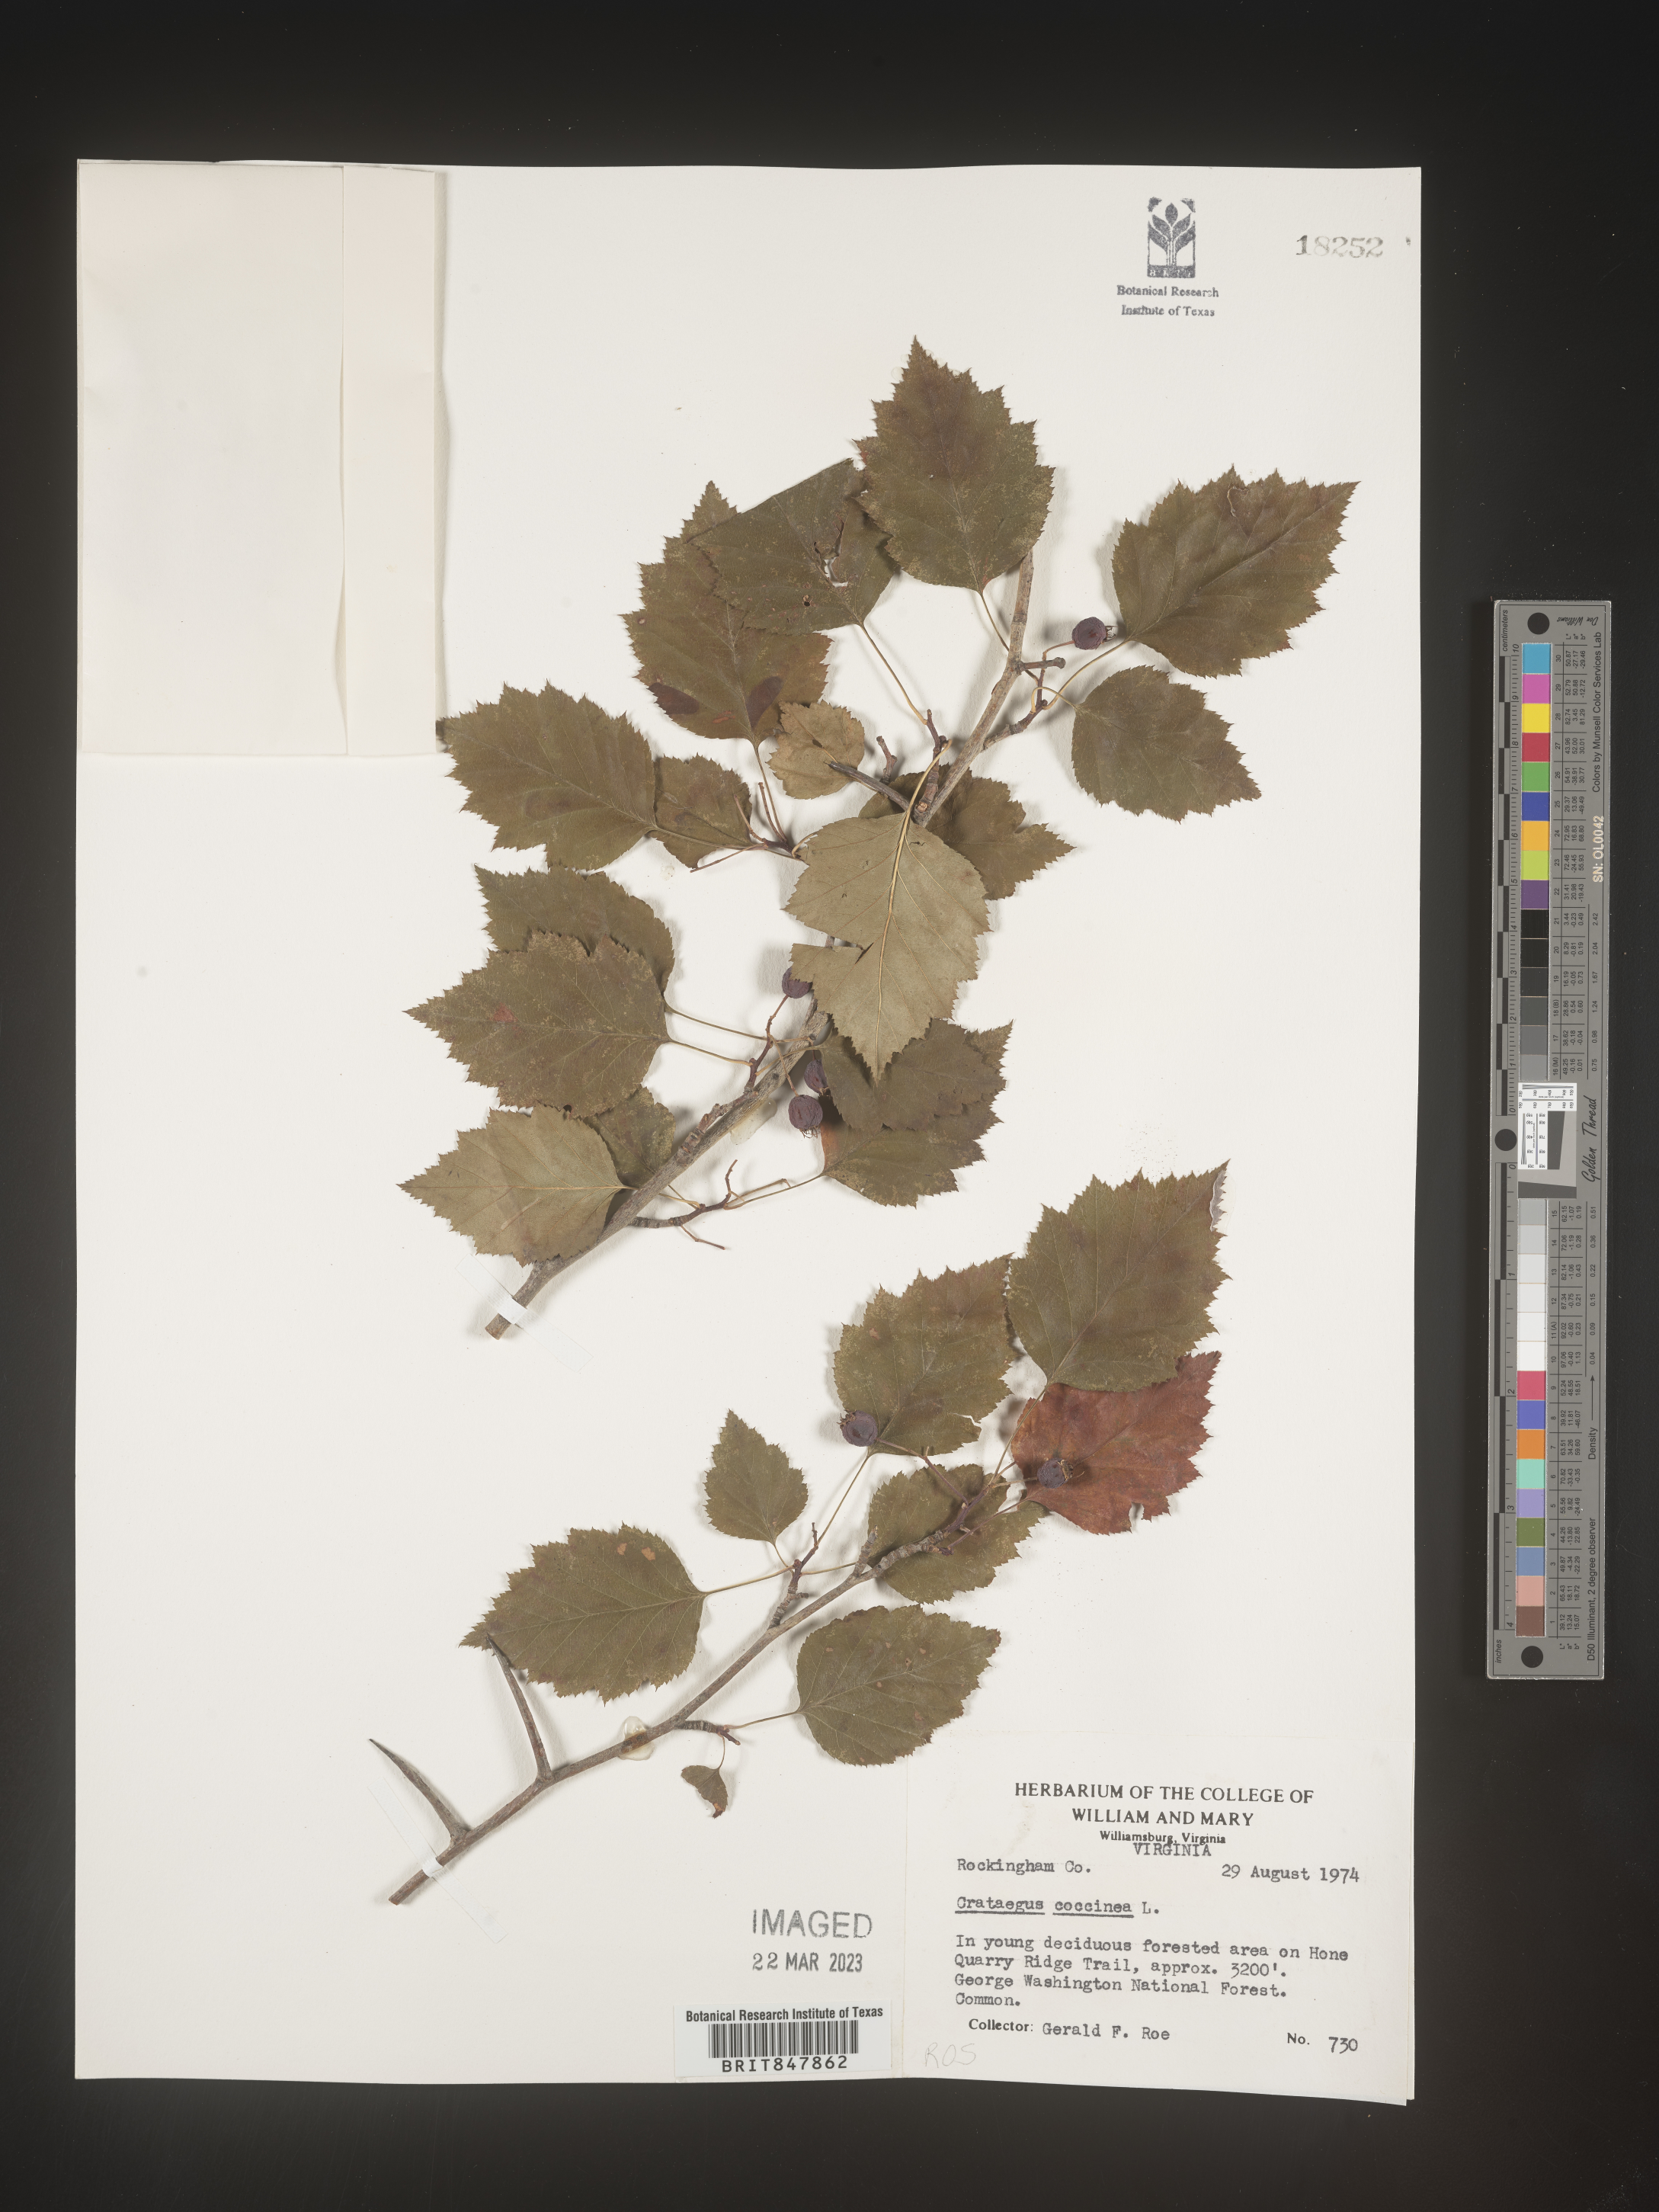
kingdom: Plantae
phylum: Tracheophyta
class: Magnoliopsida
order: Rosales
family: Rosaceae
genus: Crataegus
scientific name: Crataegus
